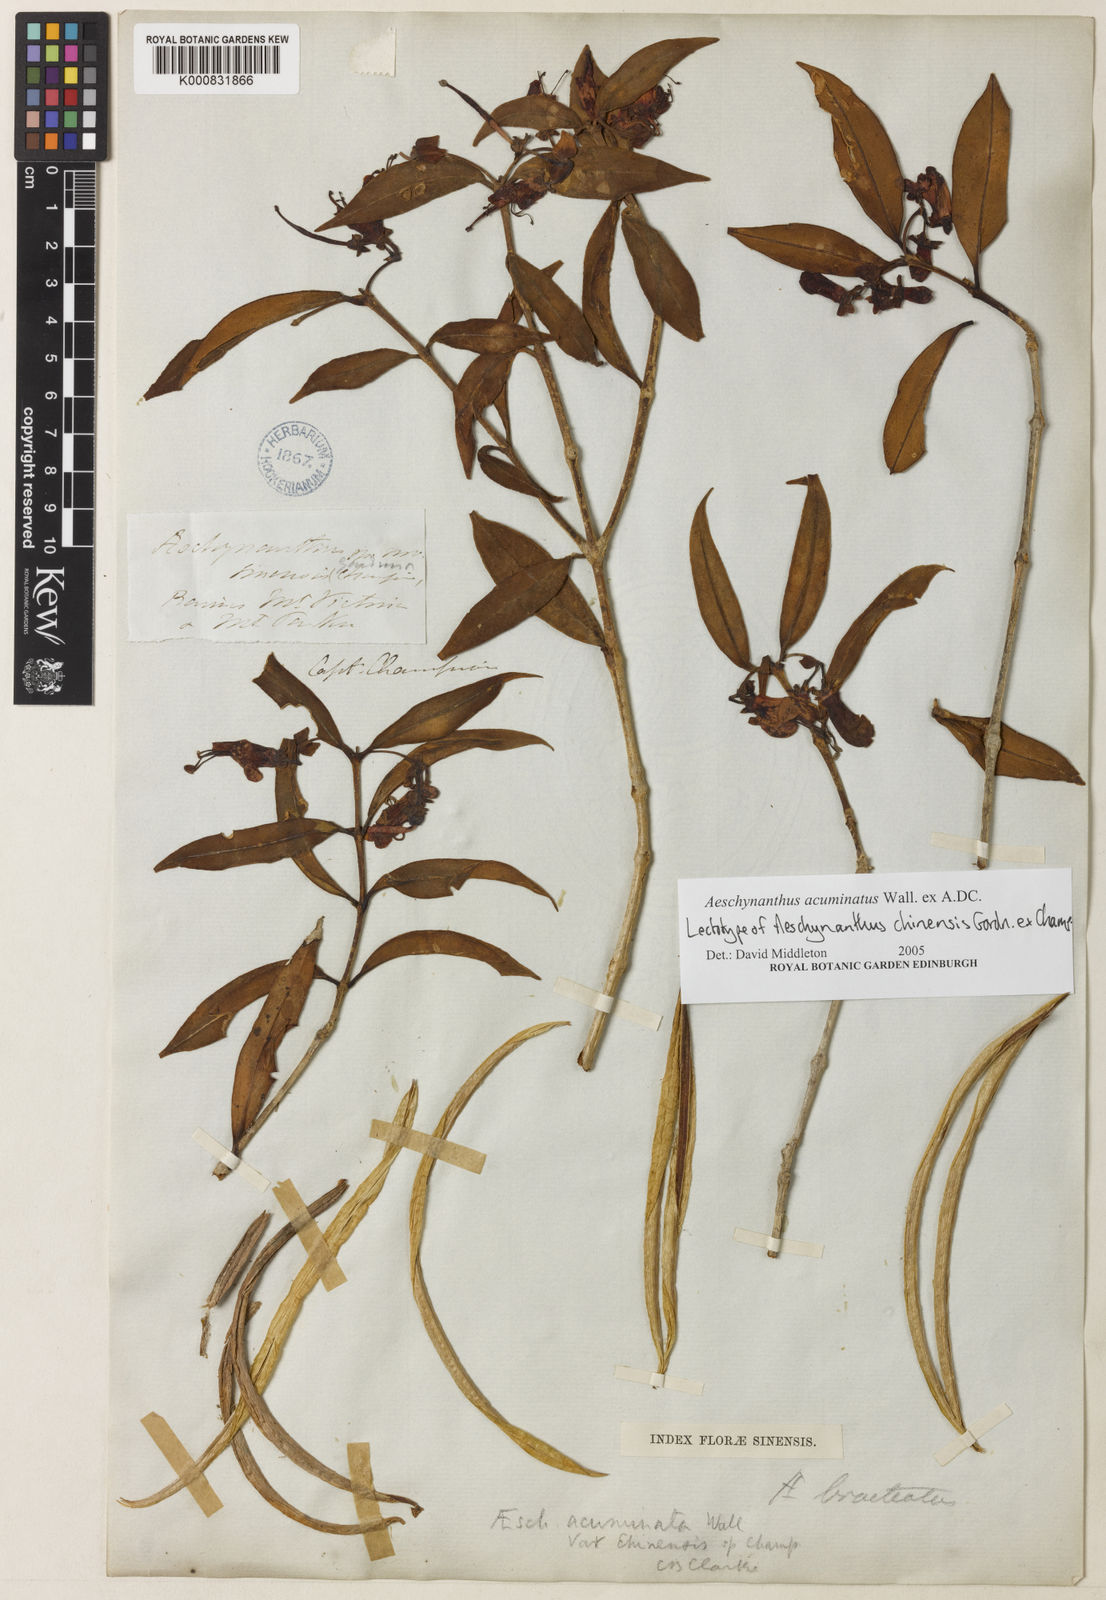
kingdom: Plantae
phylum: Tracheophyta
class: Magnoliopsida
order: Lamiales
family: Gesneriaceae
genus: Aeschynanthus
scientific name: Aeschynanthus acuminatus
